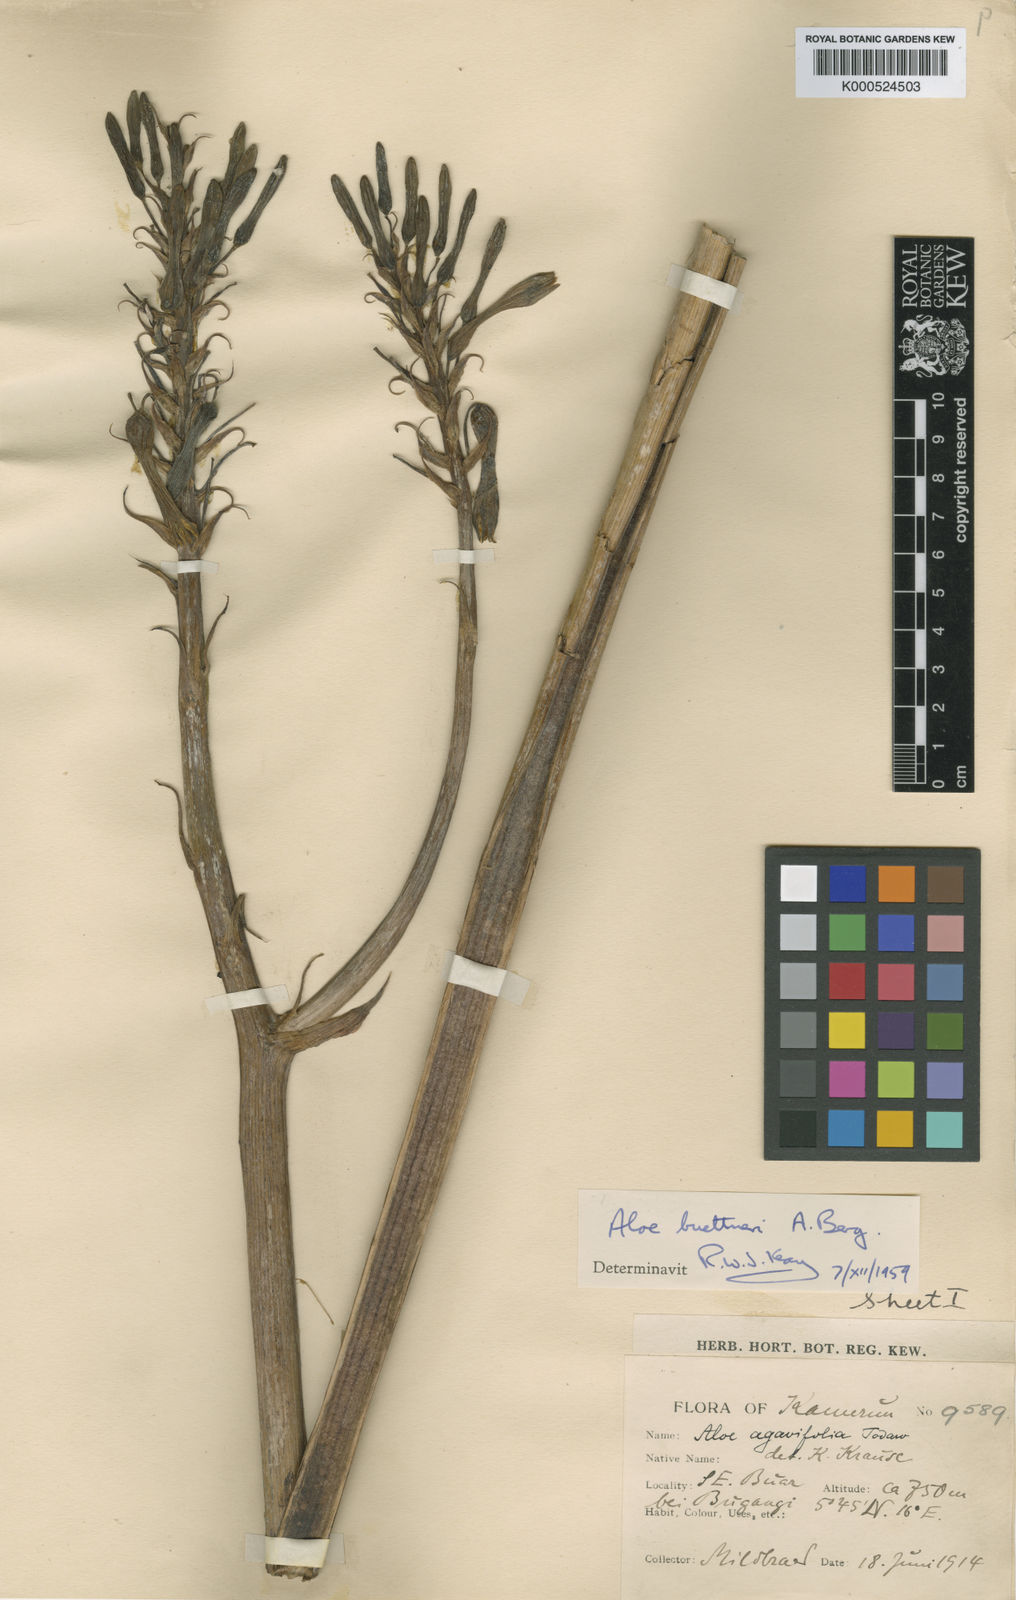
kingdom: Plantae
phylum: Tracheophyta
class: Liliopsida
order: Asparagales
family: Asphodelaceae
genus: Aloe
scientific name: Aloe buettneri
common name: West african aloe
